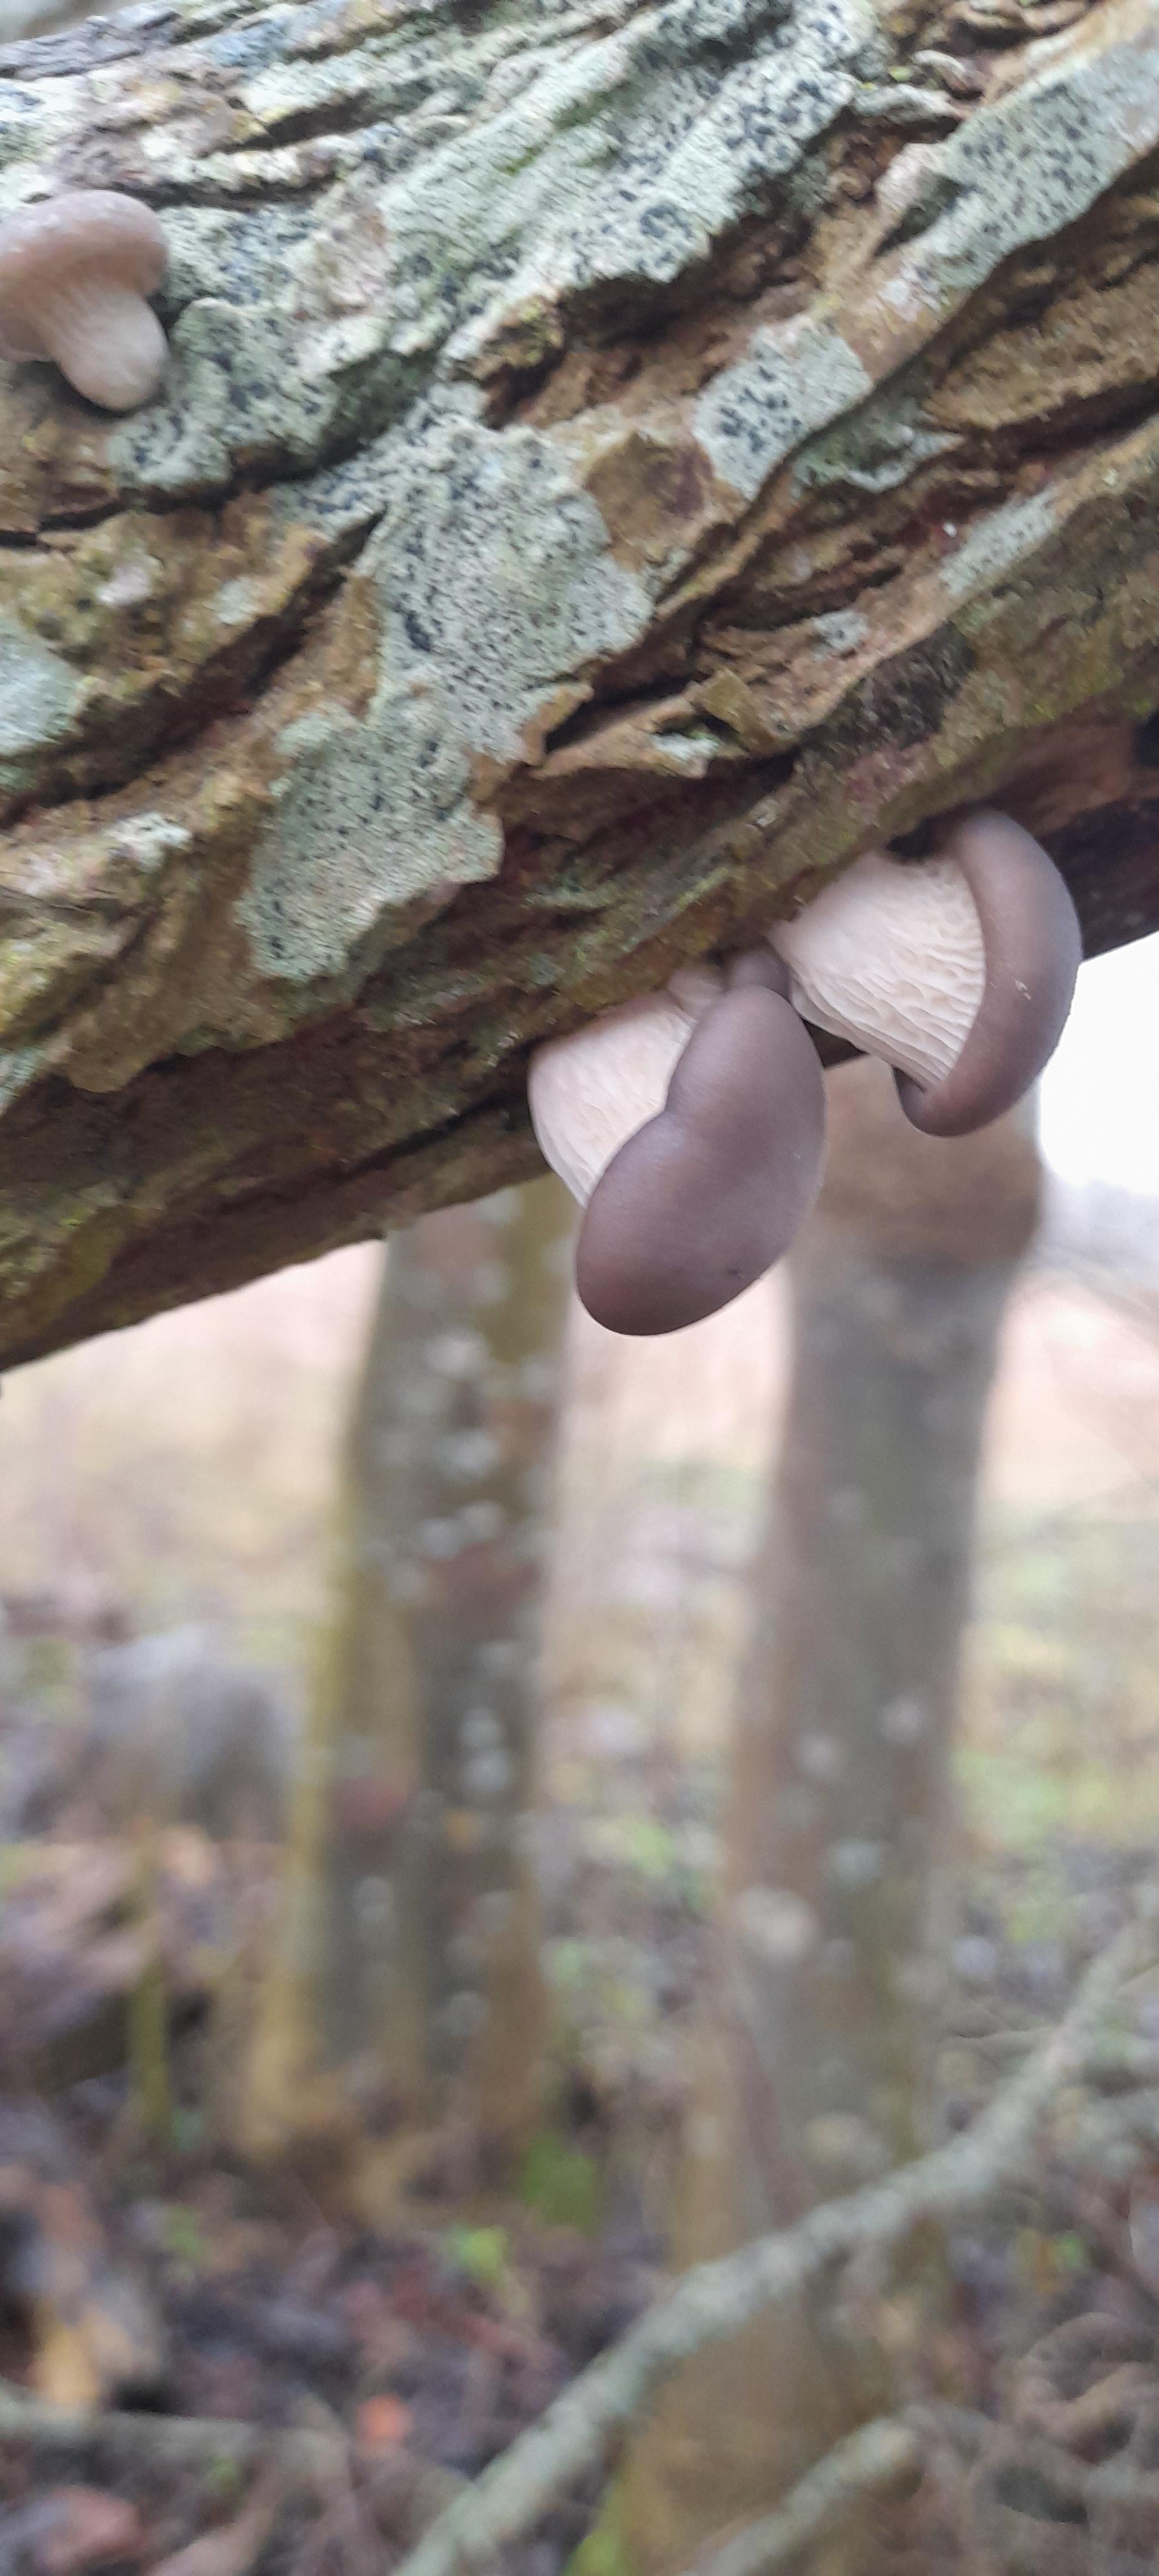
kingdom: Fungi
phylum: Basidiomycota
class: Agaricomycetes
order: Agaricales
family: Pleurotaceae
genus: Pleurotus
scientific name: Pleurotus ostreatus
